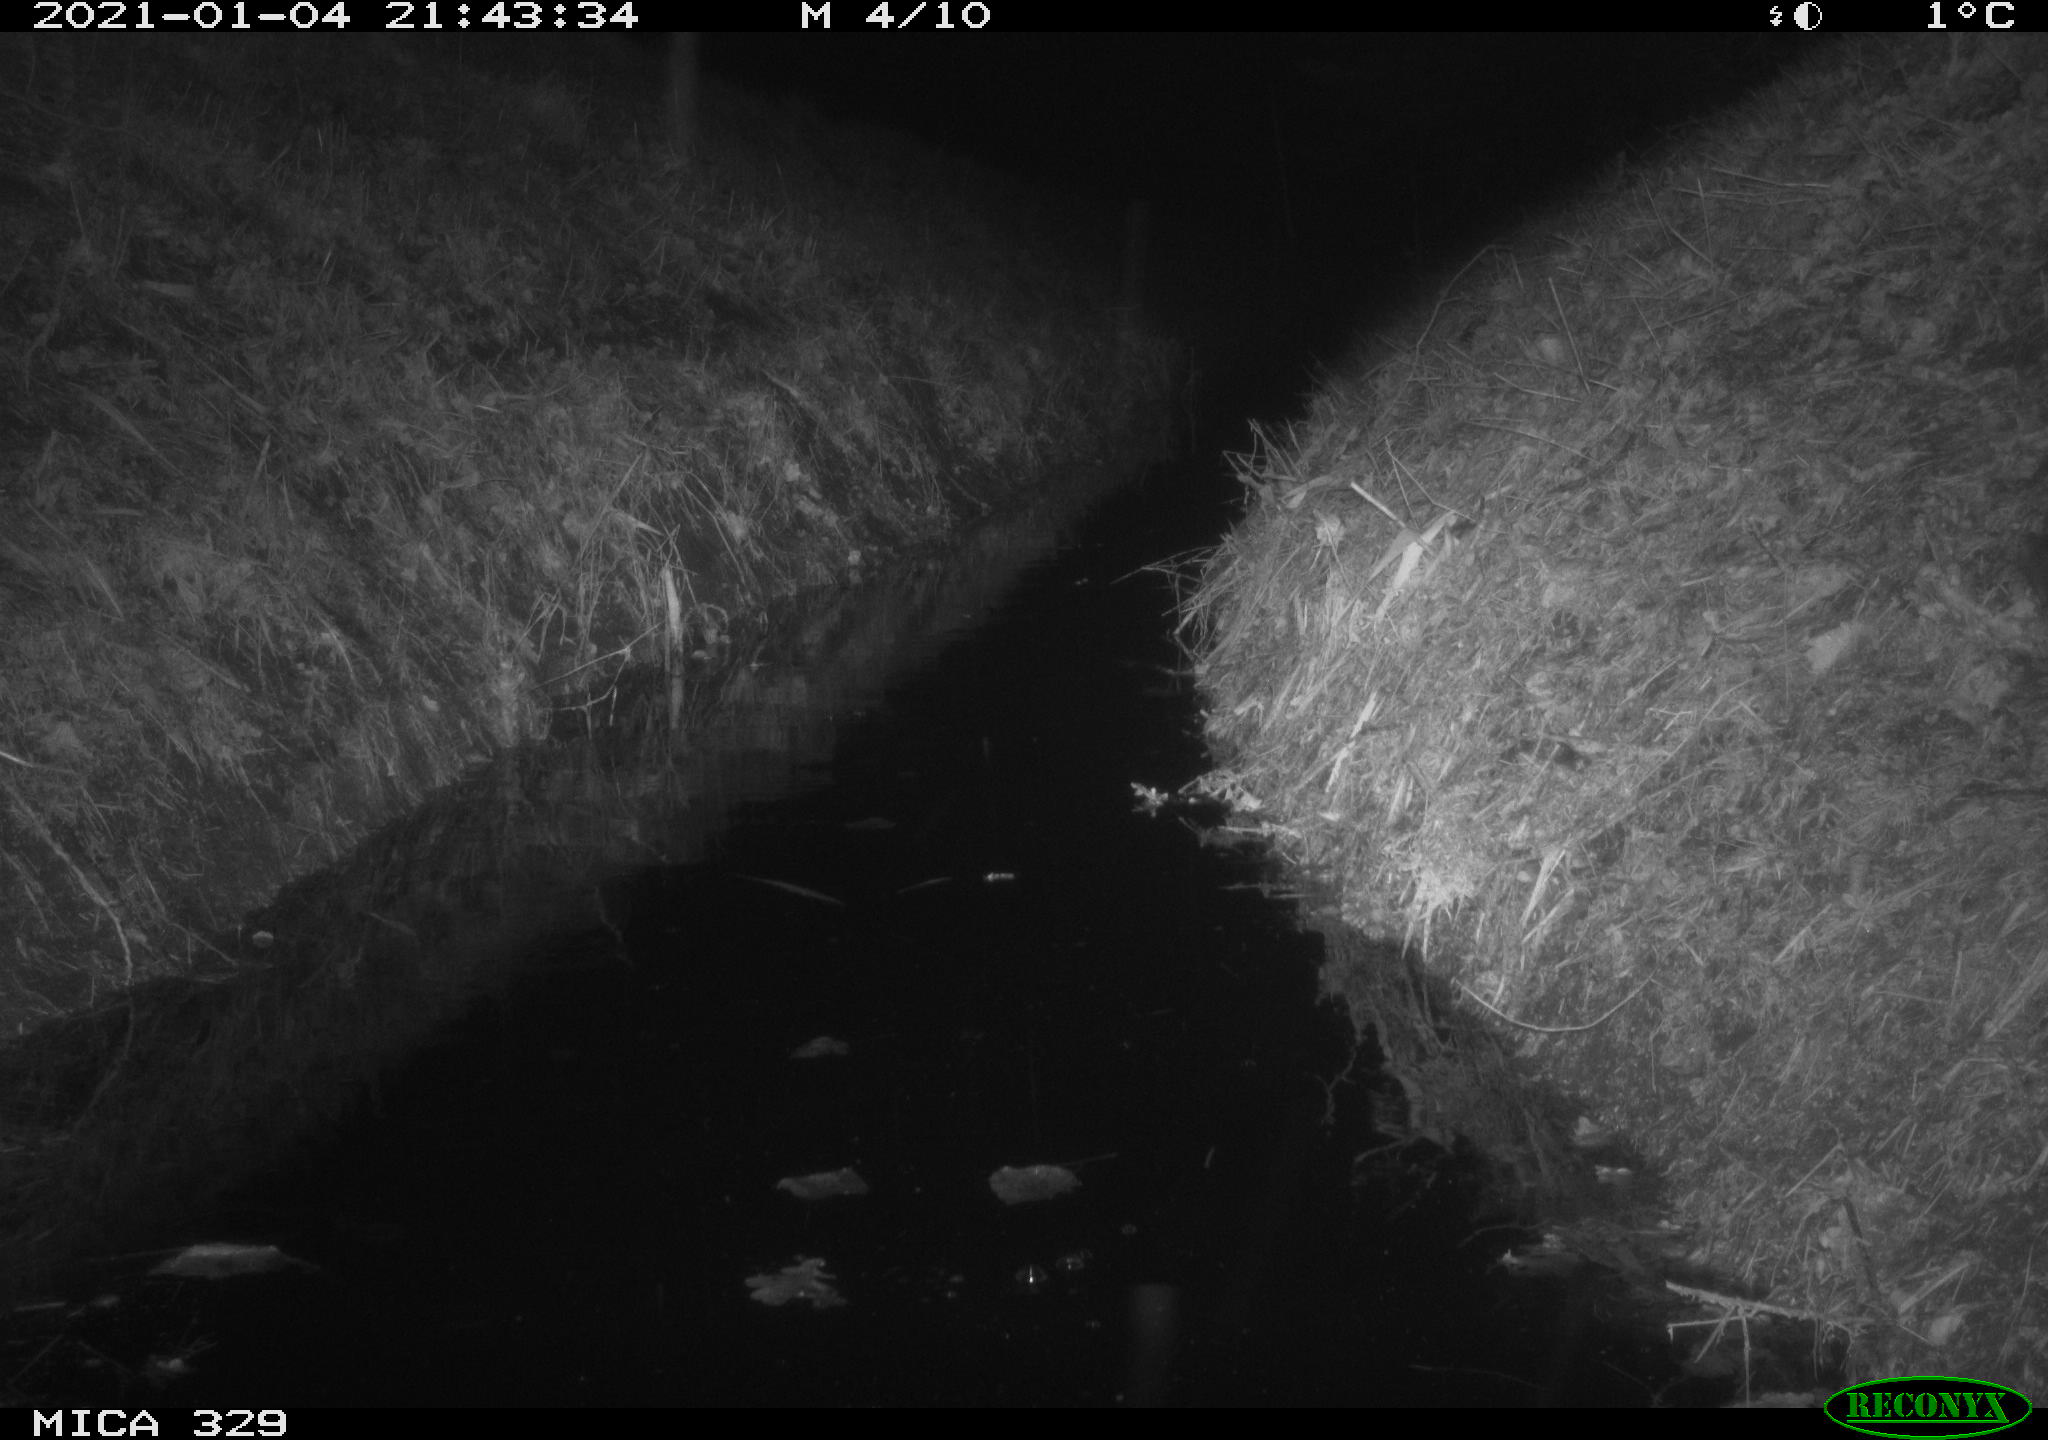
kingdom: Animalia
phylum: Chordata
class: Mammalia
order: Rodentia
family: Muridae
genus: Rattus
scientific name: Rattus norvegicus
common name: Brown rat
